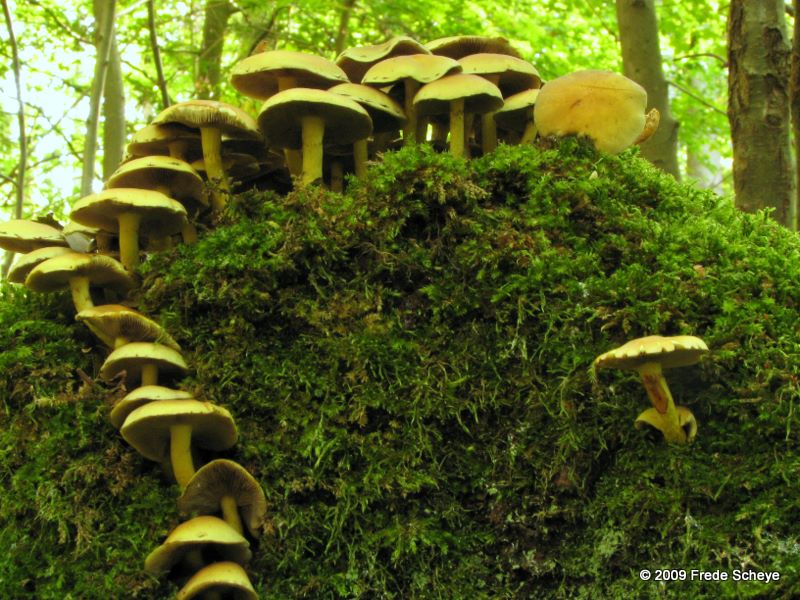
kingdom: Fungi
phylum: Basidiomycota
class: Agaricomycetes
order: Agaricales
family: Strophariaceae
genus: Hypholoma
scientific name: Hypholoma fasciculare
